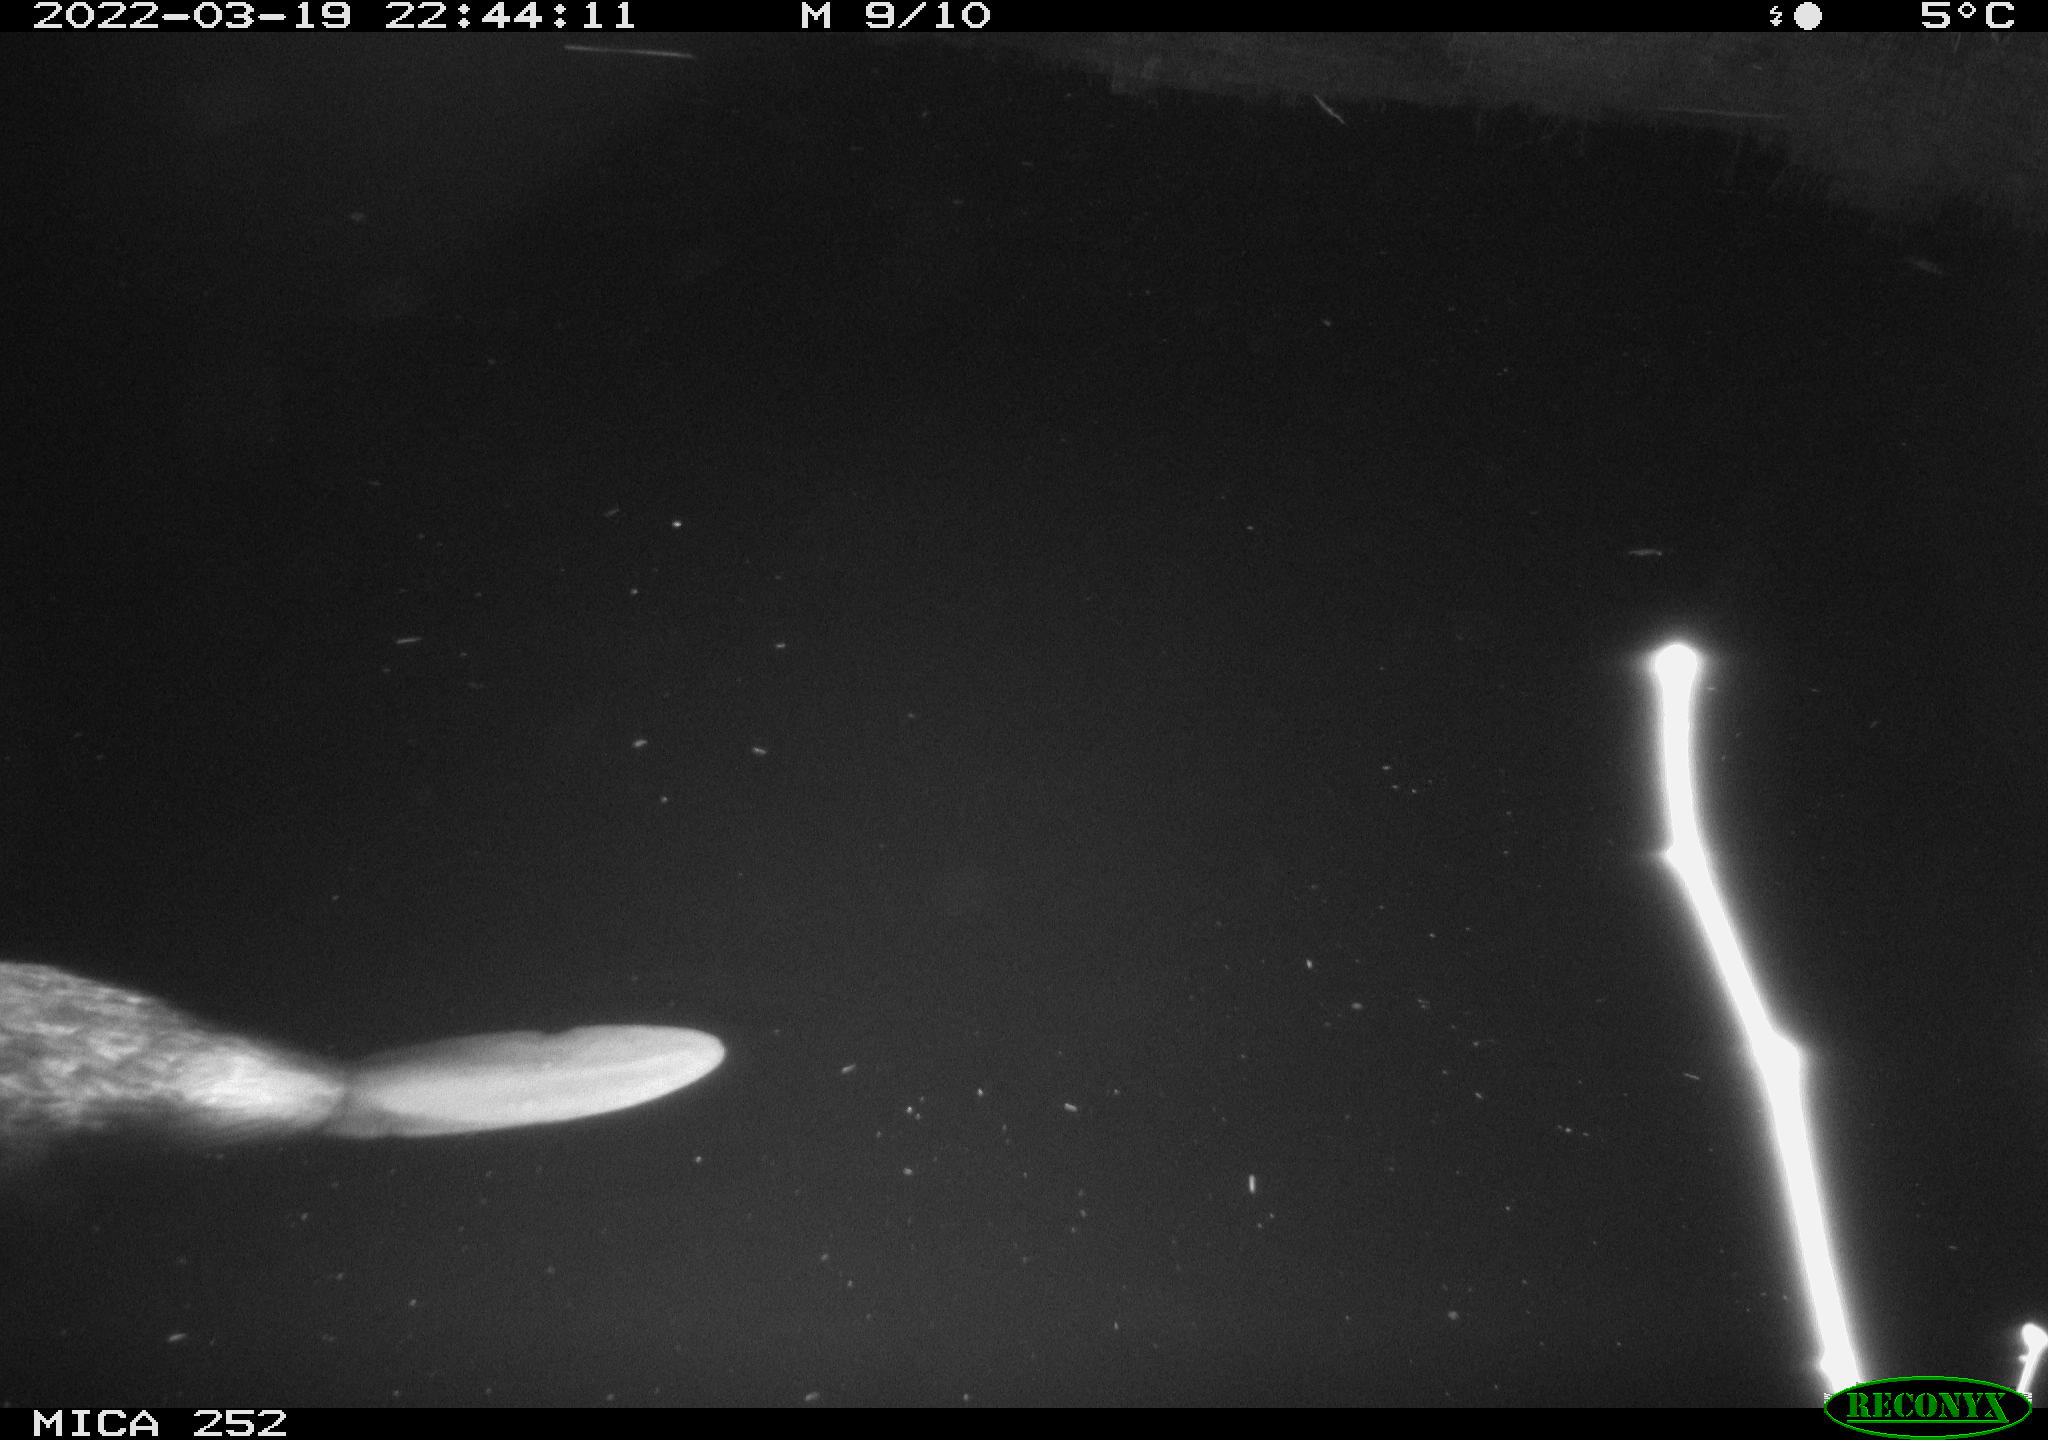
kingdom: Animalia
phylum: Chordata
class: Mammalia
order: Rodentia
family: Castoridae
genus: Castor
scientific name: Castor fiber
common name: Eurasian beaver
